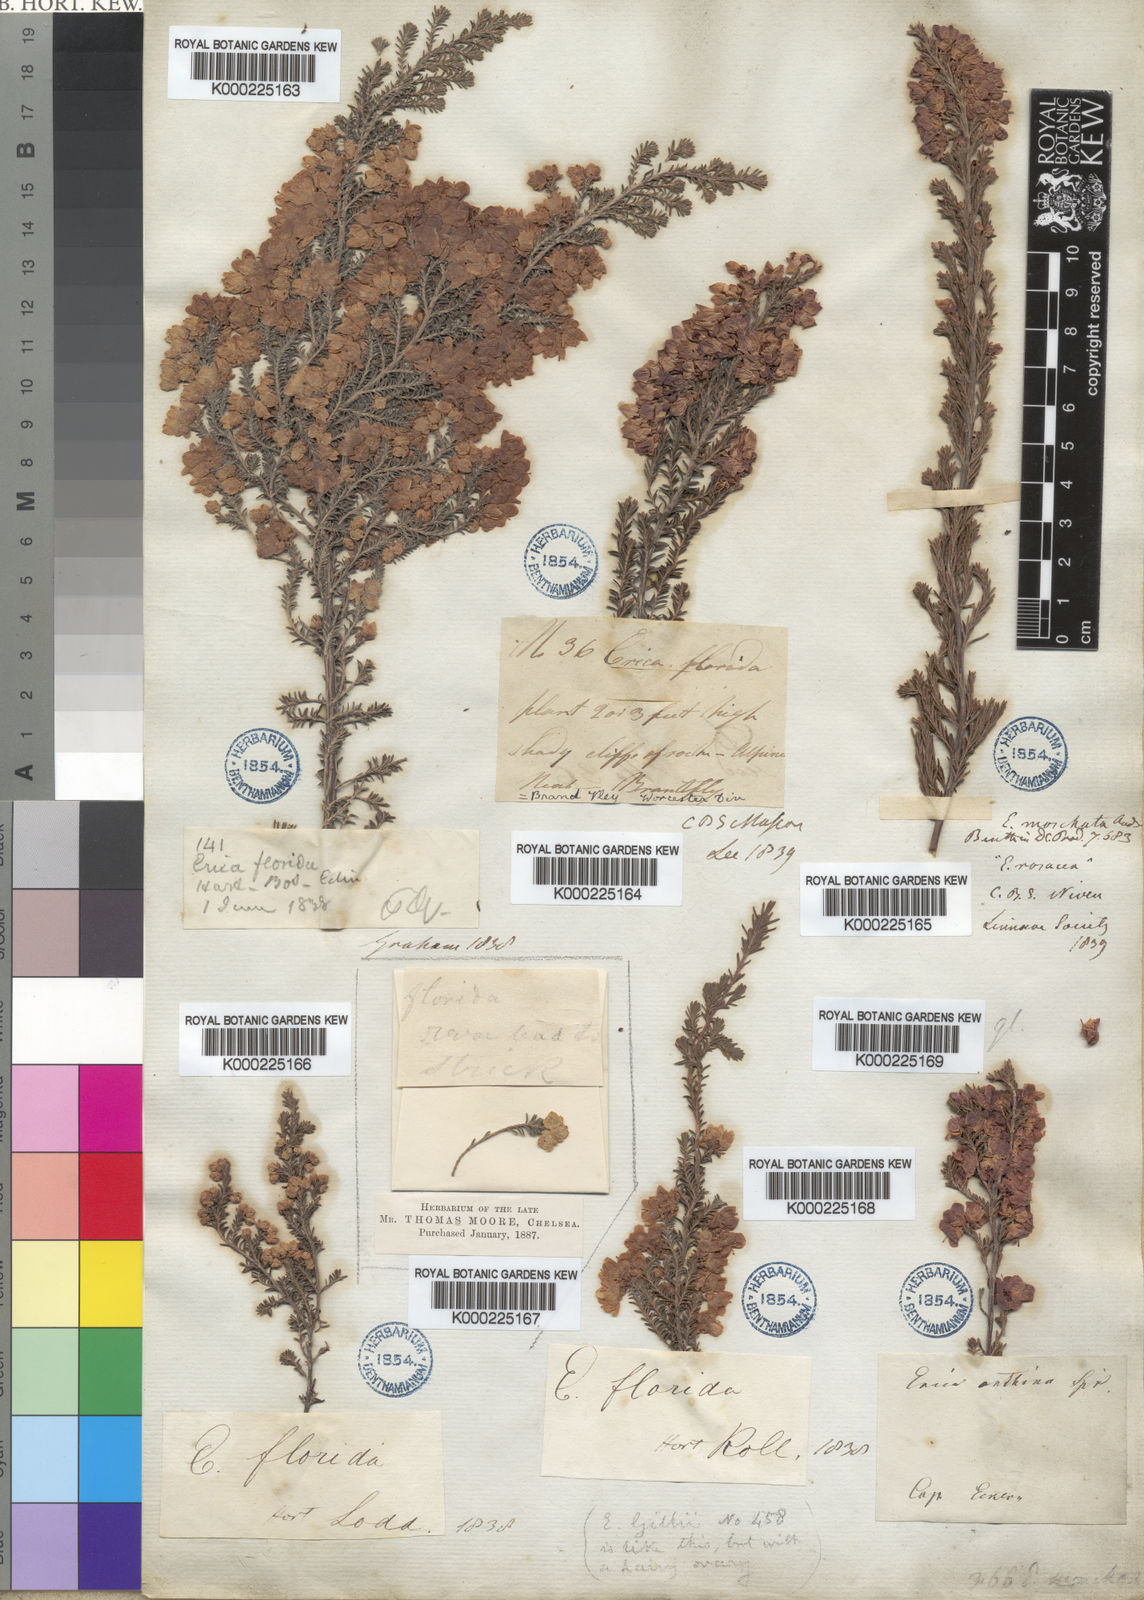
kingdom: Plantae
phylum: Tracheophyta
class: Magnoliopsida
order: Ericales
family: Ericaceae
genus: Erica
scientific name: Erica
